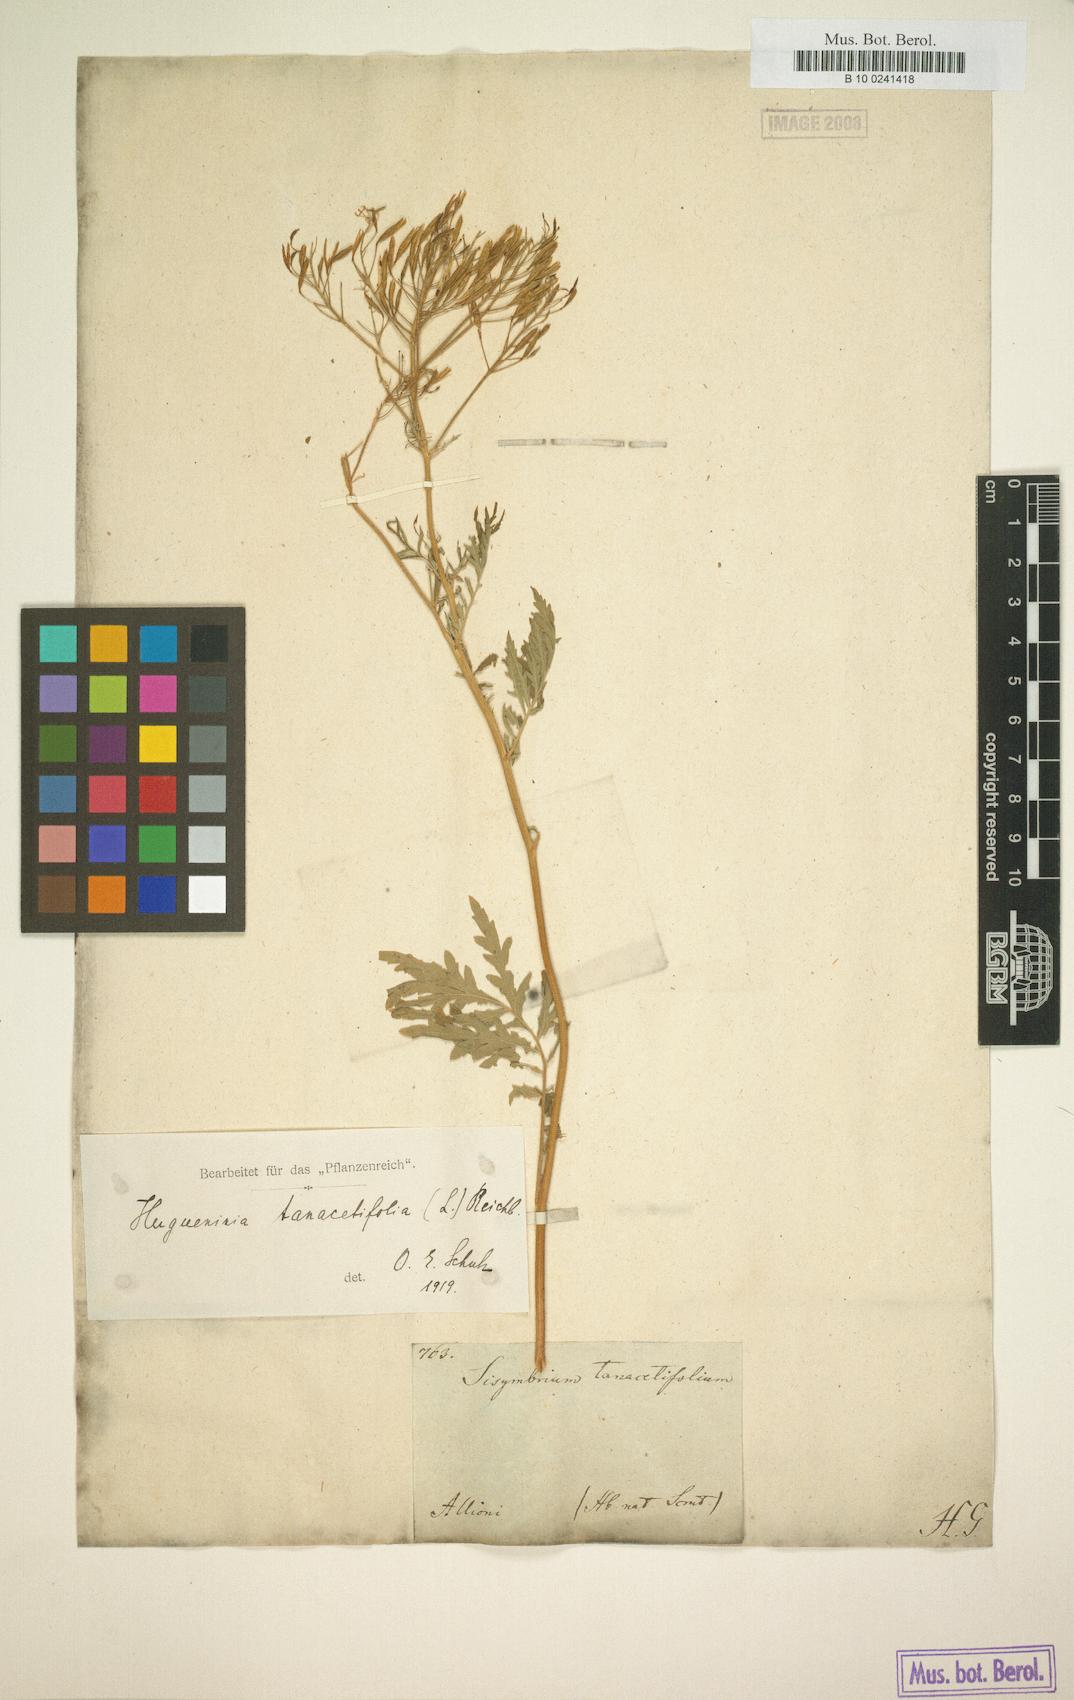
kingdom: Plantae
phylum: Tracheophyta
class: Magnoliopsida
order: Brassicales
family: Brassicaceae
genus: Descurainia
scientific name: Descurainia tanacetifolia
